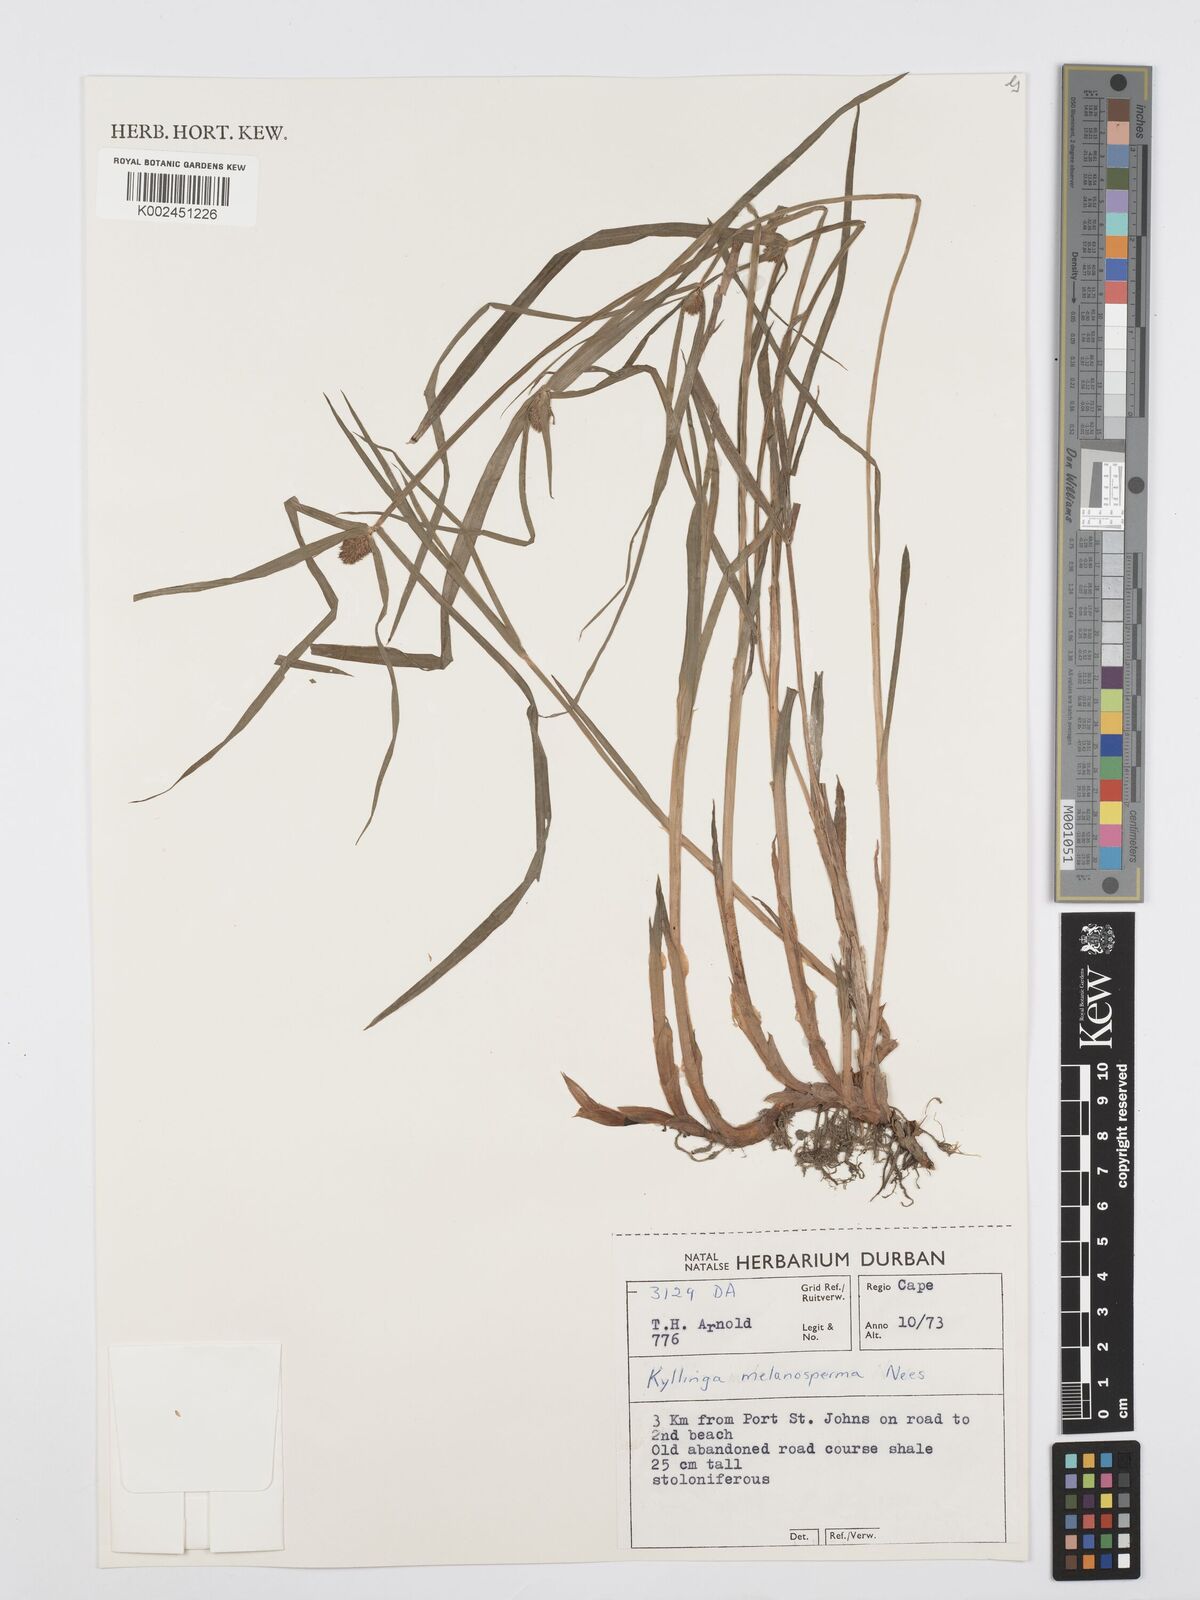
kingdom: Plantae
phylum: Tracheophyta
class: Liliopsida
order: Poales
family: Cyperaceae
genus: Cyperus
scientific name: Cyperus melanospermus
